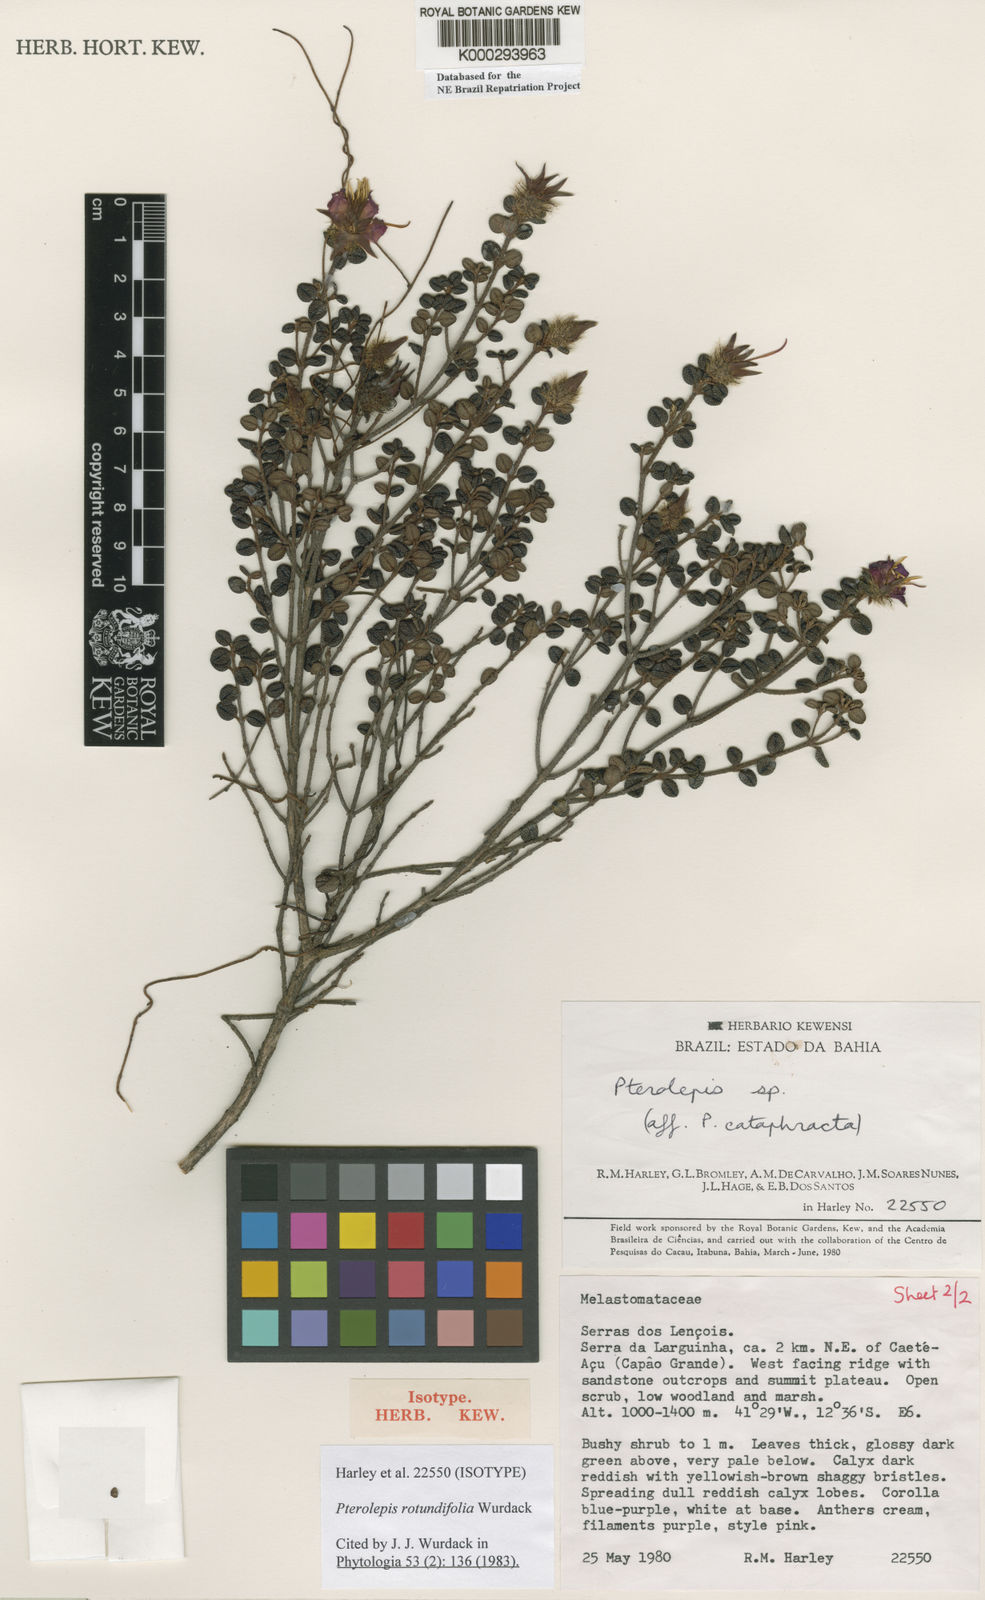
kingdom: Plantae
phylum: Tracheophyta
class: Magnoliopsida
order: Myrtales
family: Melastomataceae
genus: Pterolepis
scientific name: Pterolepis rotundifolia
